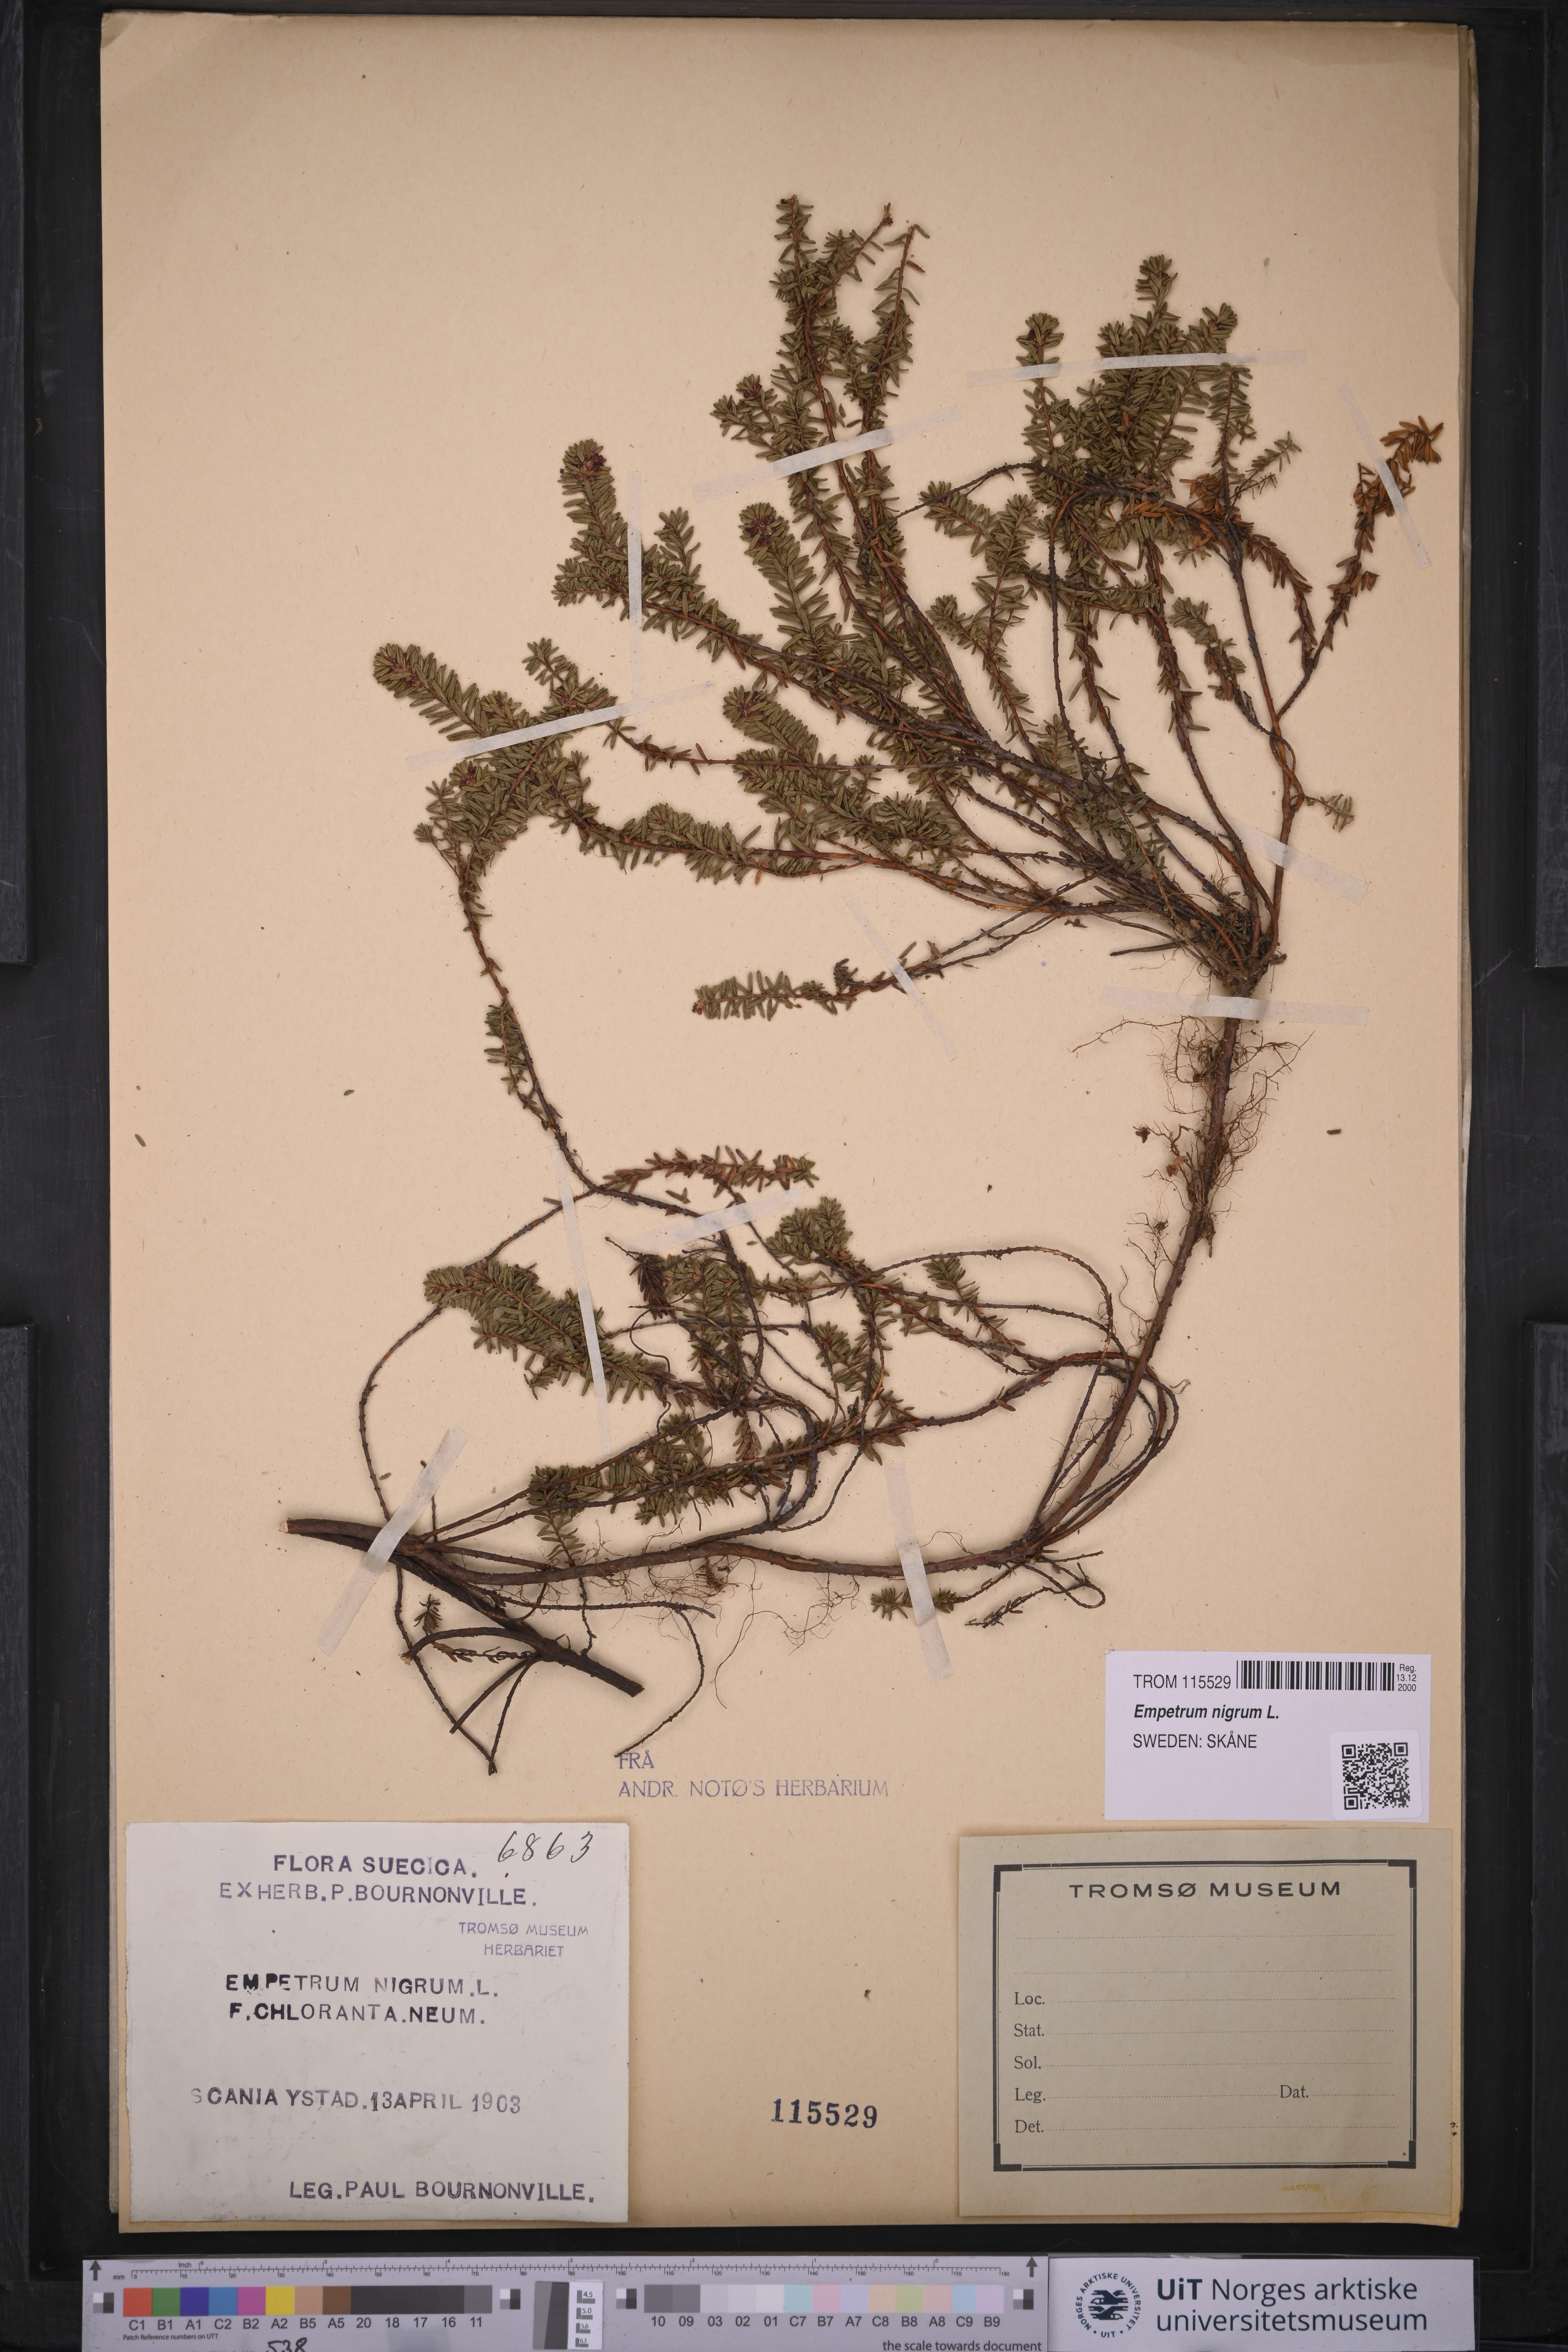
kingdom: Plantae
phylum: Tracheophyta
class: Magnoliopsida
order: Ericales
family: Ericaceae
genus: Empetrum
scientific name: Empetrum nigrum
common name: Black crowberry
